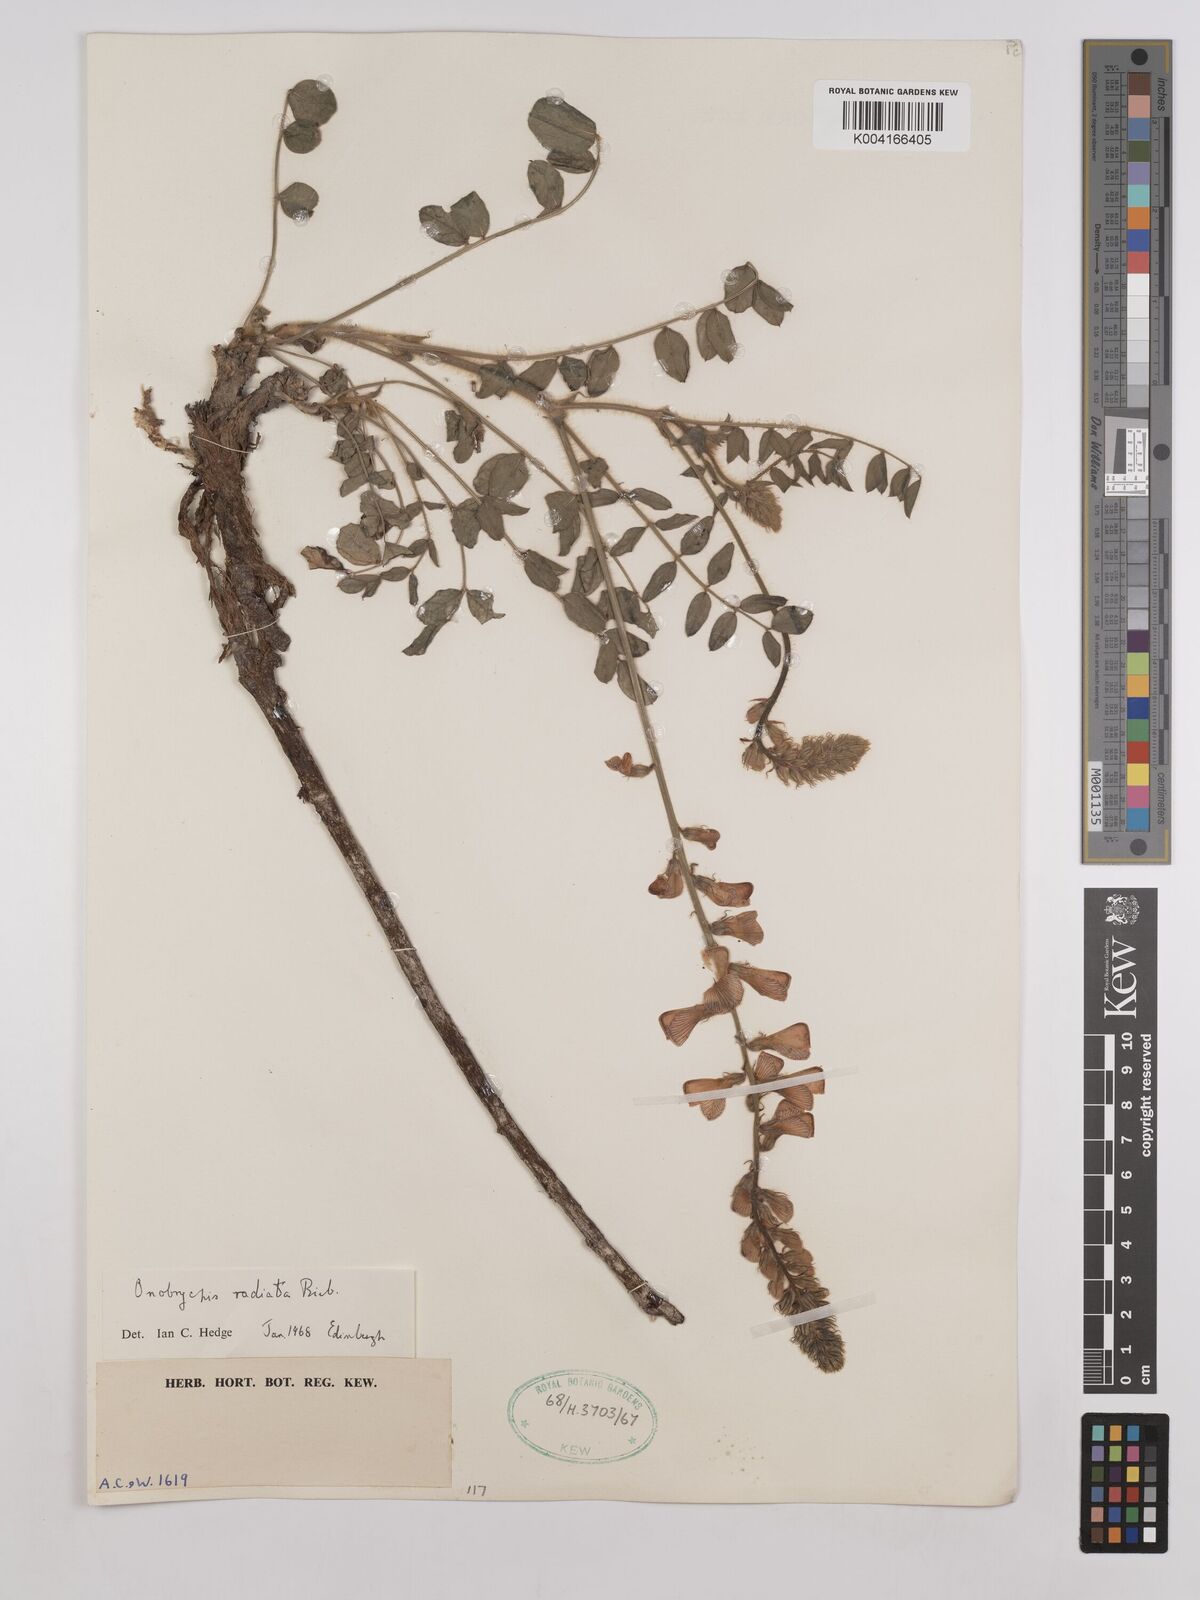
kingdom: Plantae
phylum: Tracheophyta
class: Magnoliopsida
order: Fabales
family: Fabaceae
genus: Onobrychis
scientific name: Onobrychis
